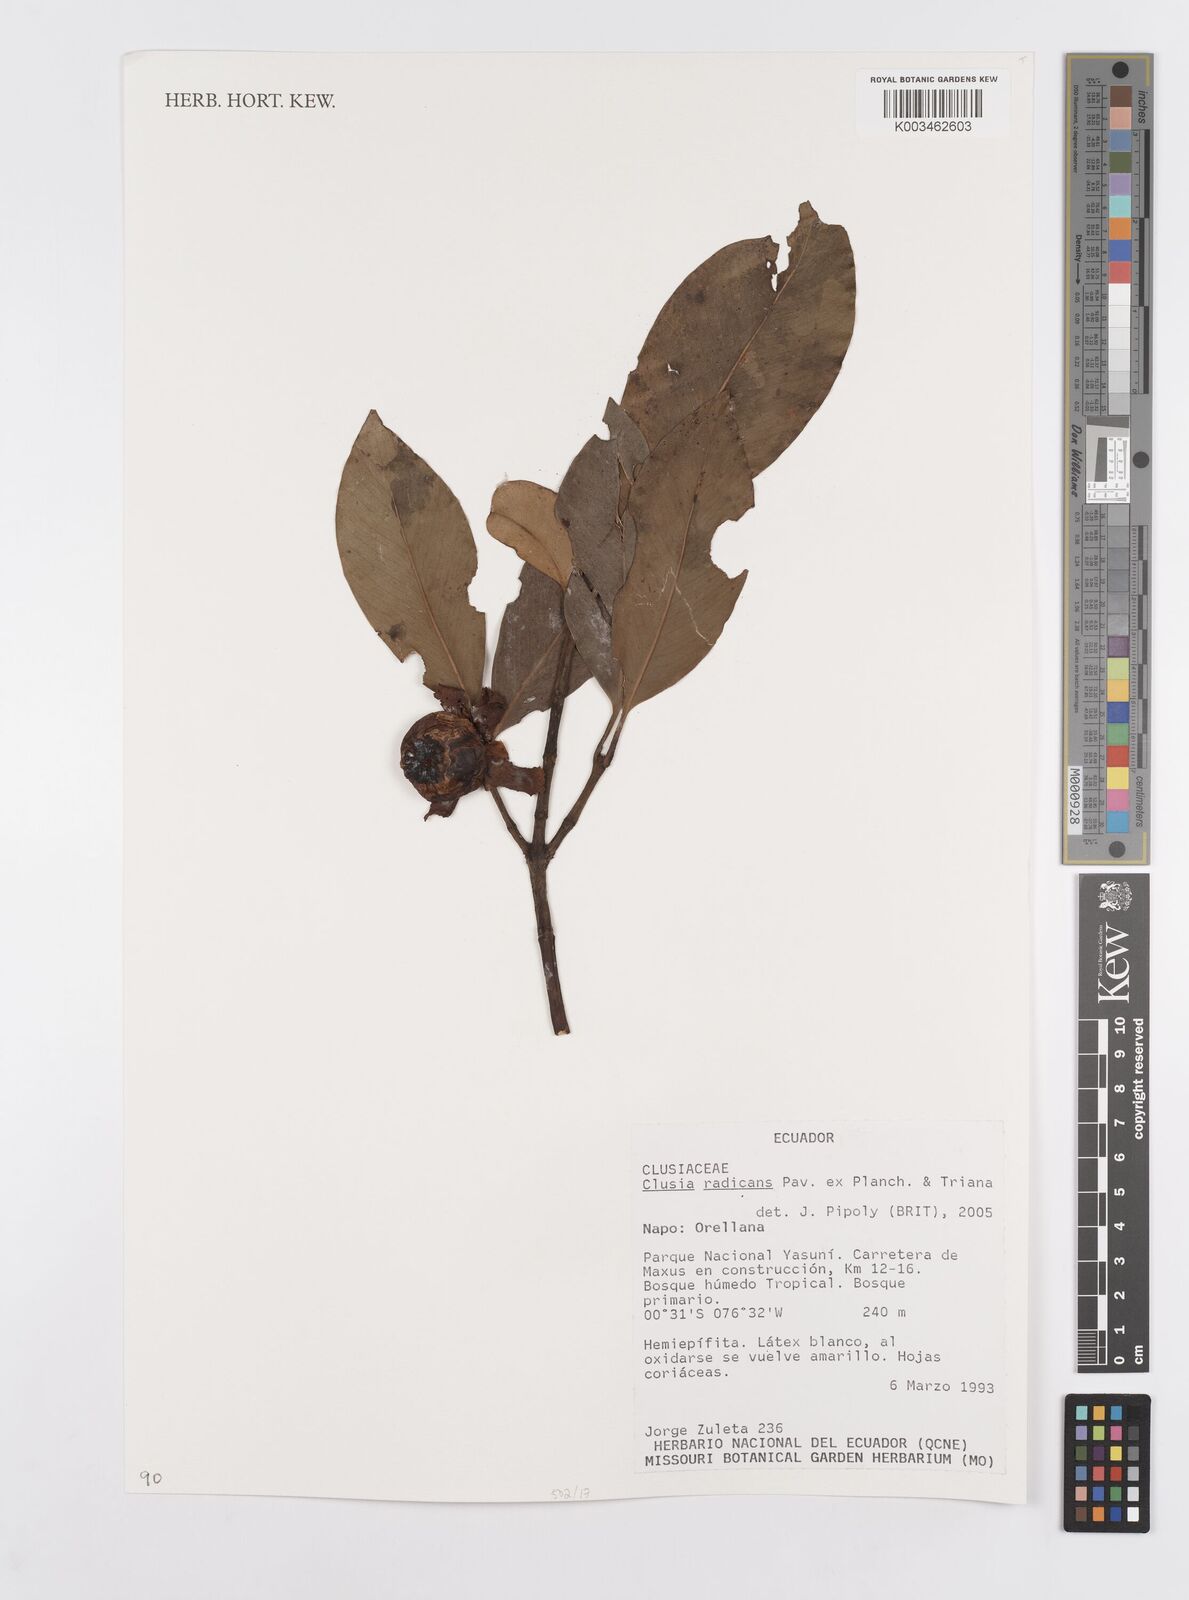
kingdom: Plantae
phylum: Tracheophyta
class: Magnoliopsida
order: Malpighiales
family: Clusiaceae
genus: Clusia
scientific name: Clusia radicans
